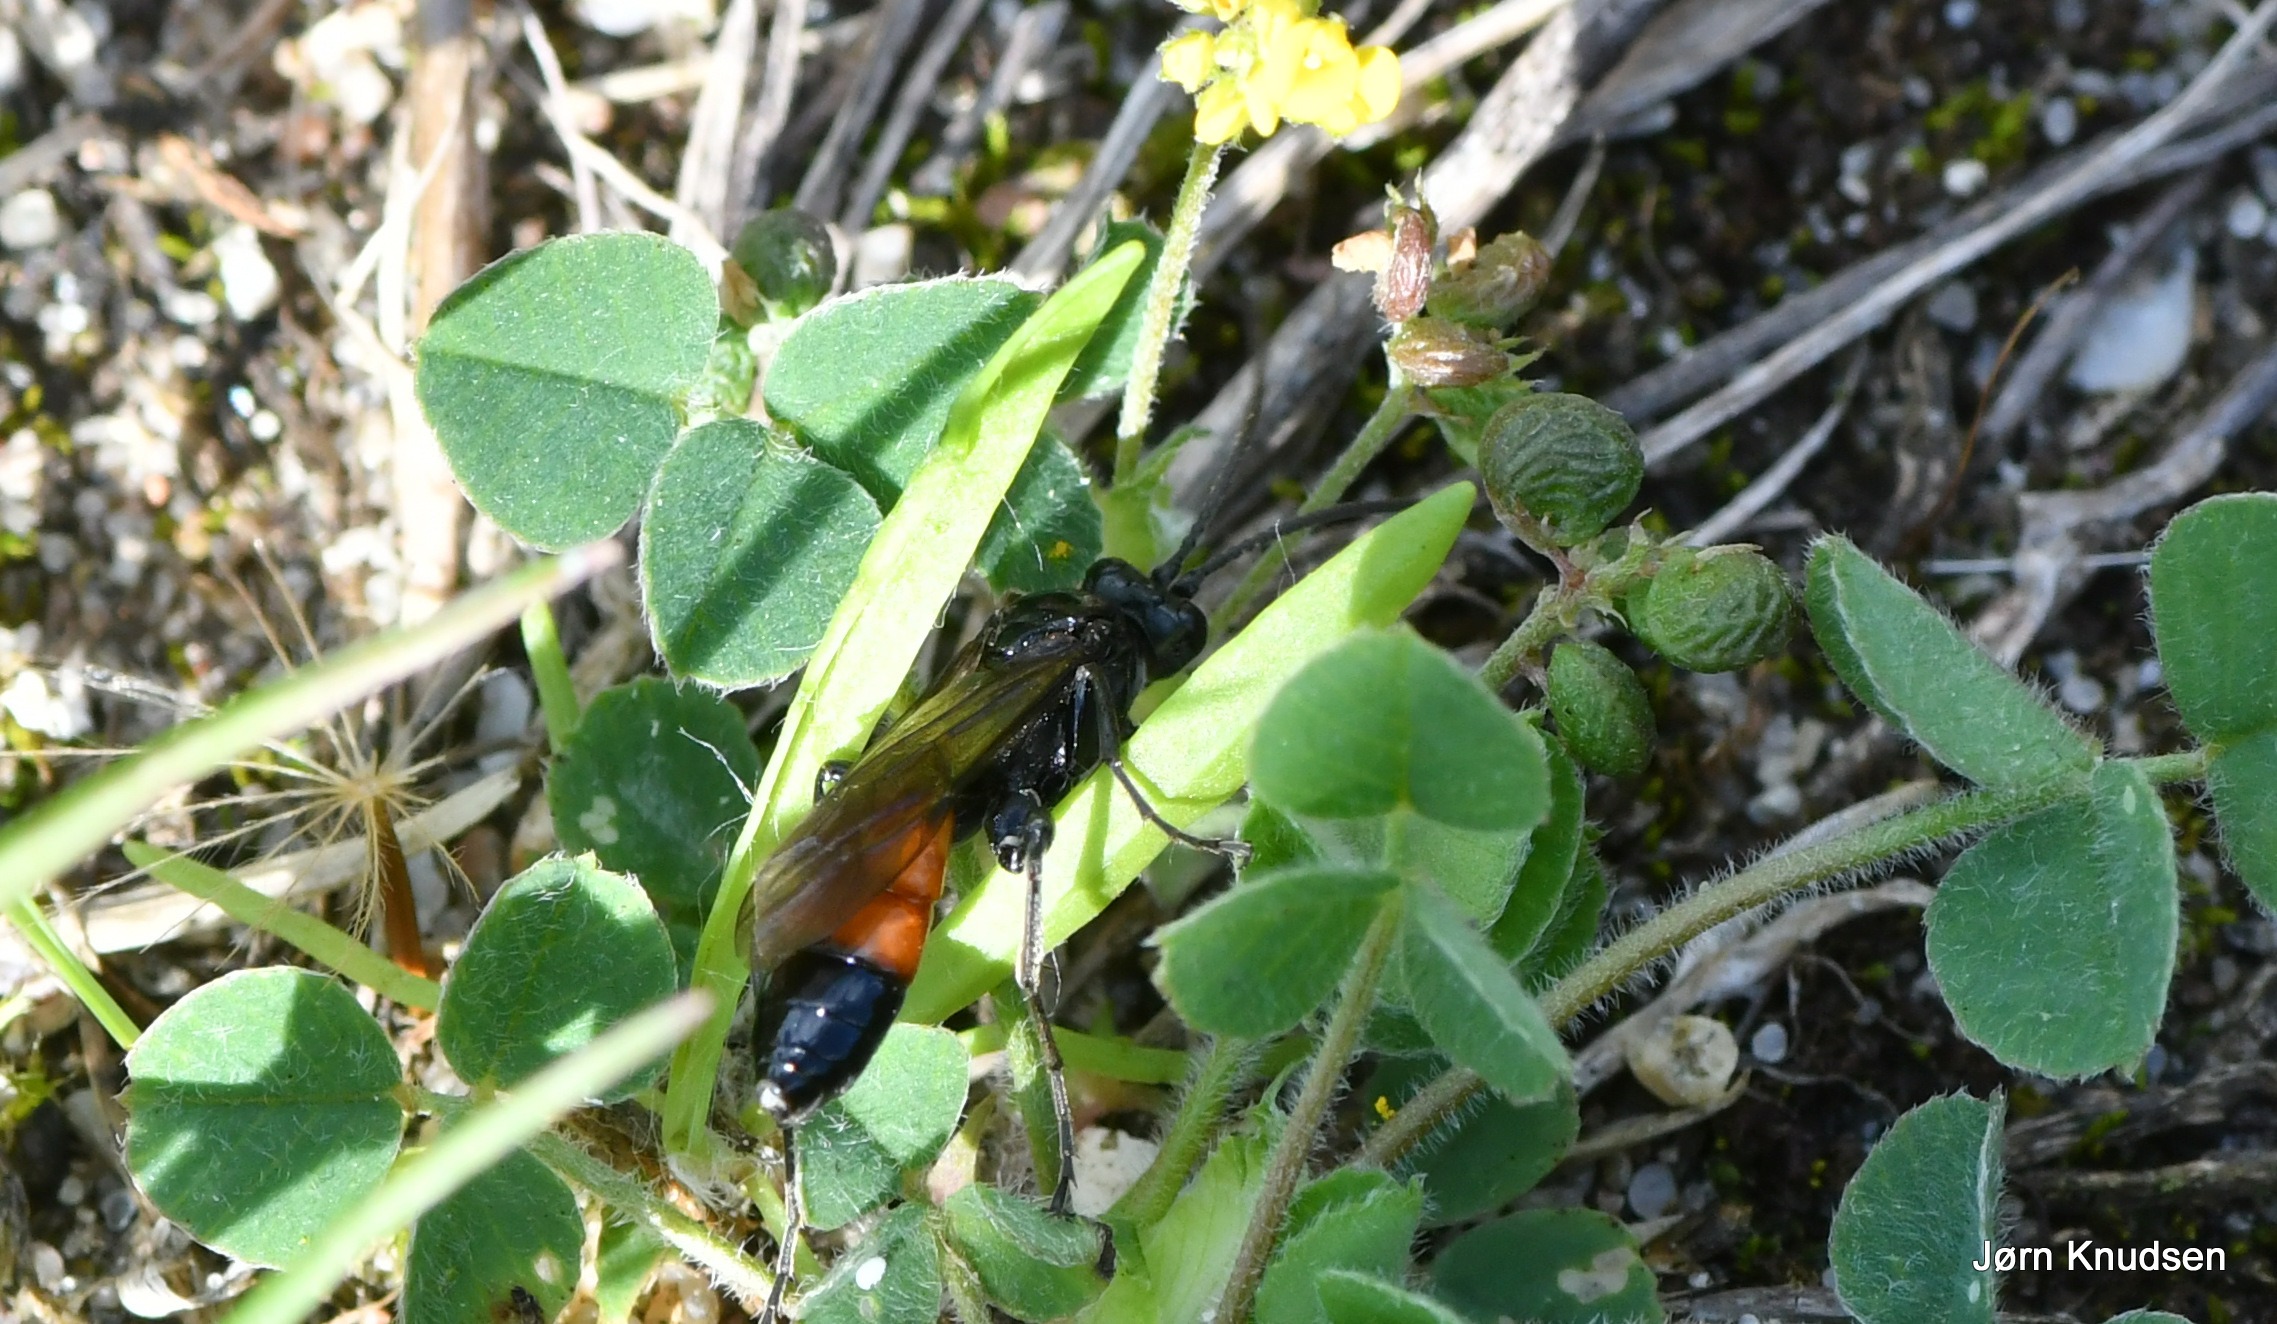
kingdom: Animalia
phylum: Arthropoda
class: Insecta
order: Hymenoptera
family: Ichneumonidae
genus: Ctenichneumon
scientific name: Ctenichneumon panzeri
